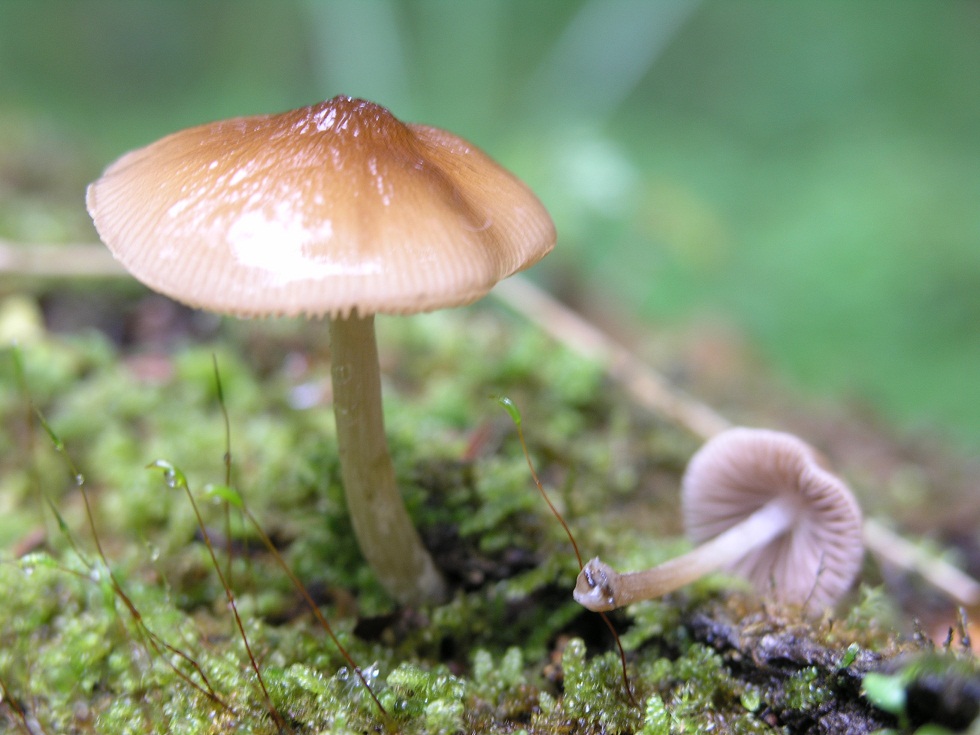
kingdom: Fungi
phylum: Basidiomycota
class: Agaricomycetes
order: Agaricales
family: Pluteaceae
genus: Pluteus
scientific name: Pluteus phlebophorus
